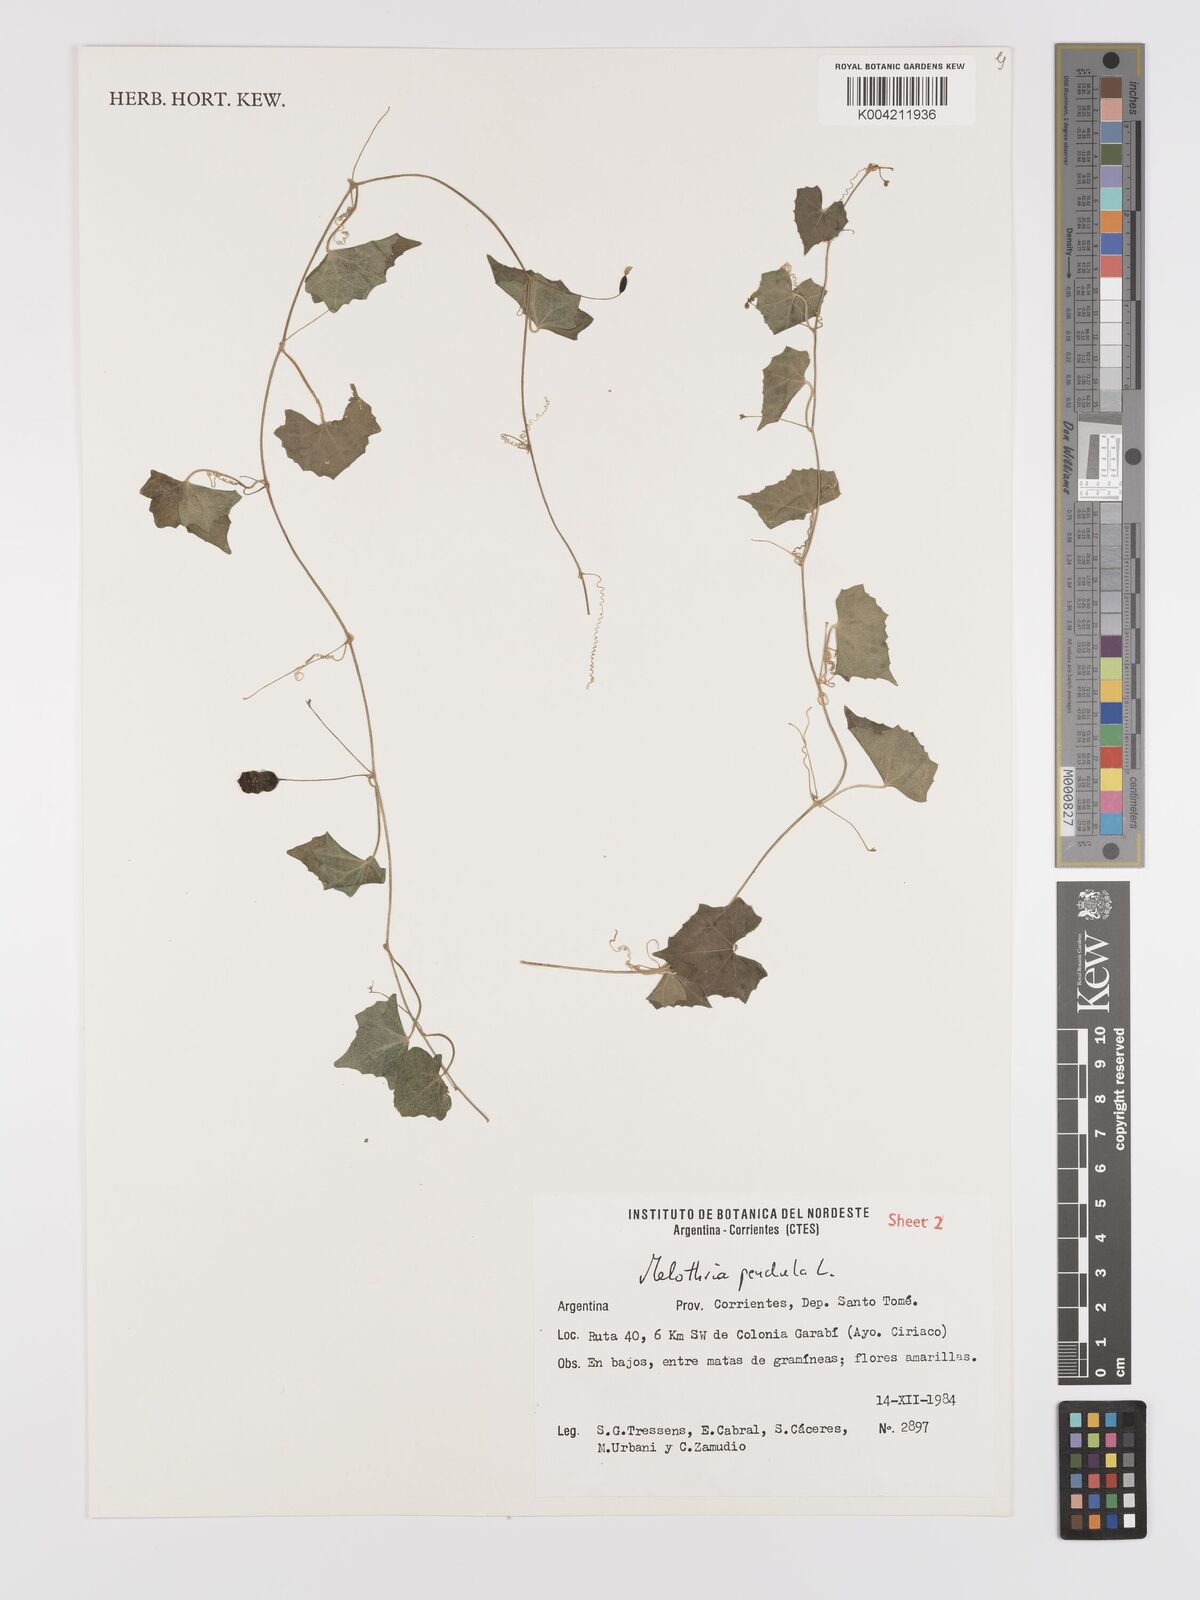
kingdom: Plantae
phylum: Tracheophyta
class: Magnoliopsida
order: Cucurbitales
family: Cucurbitaceae
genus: Melothria
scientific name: Melothria pendula
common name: Creeping-cucumber
